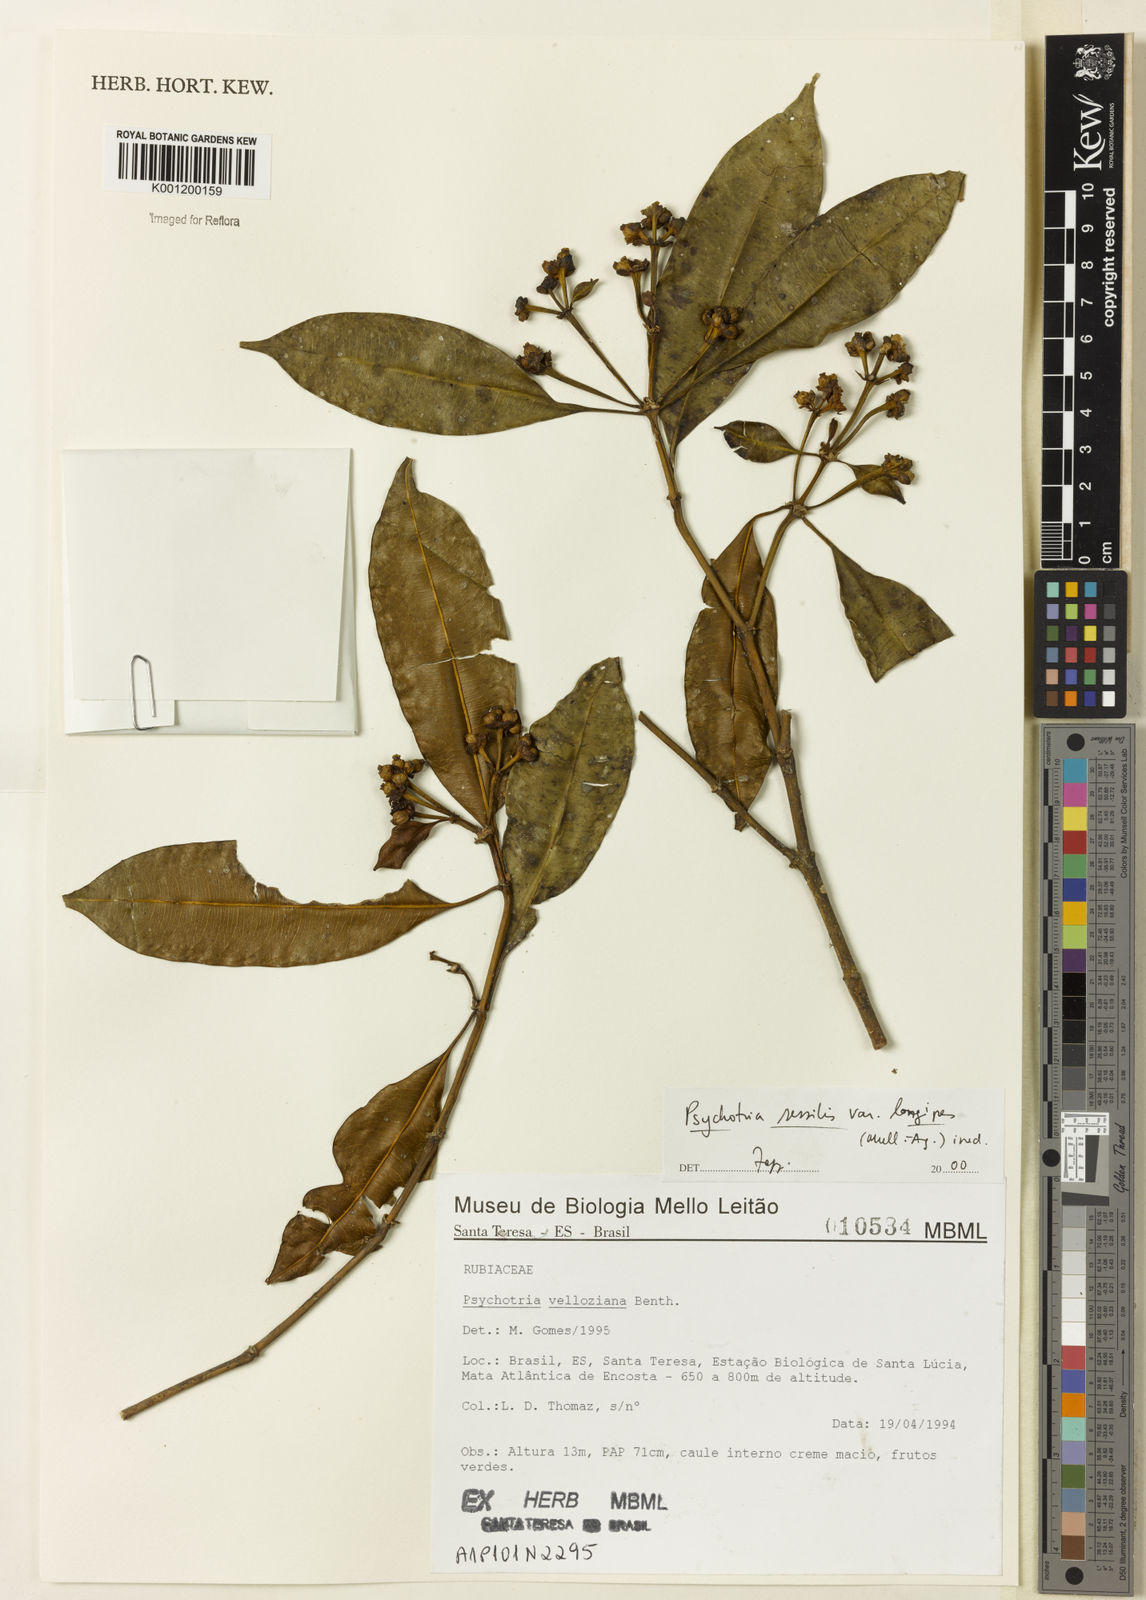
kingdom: Plantae
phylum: Tracheophyta
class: Magnoliopsida
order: Gentianales
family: Rubiaceae
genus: Rudgea
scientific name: Rudgea sessilis
